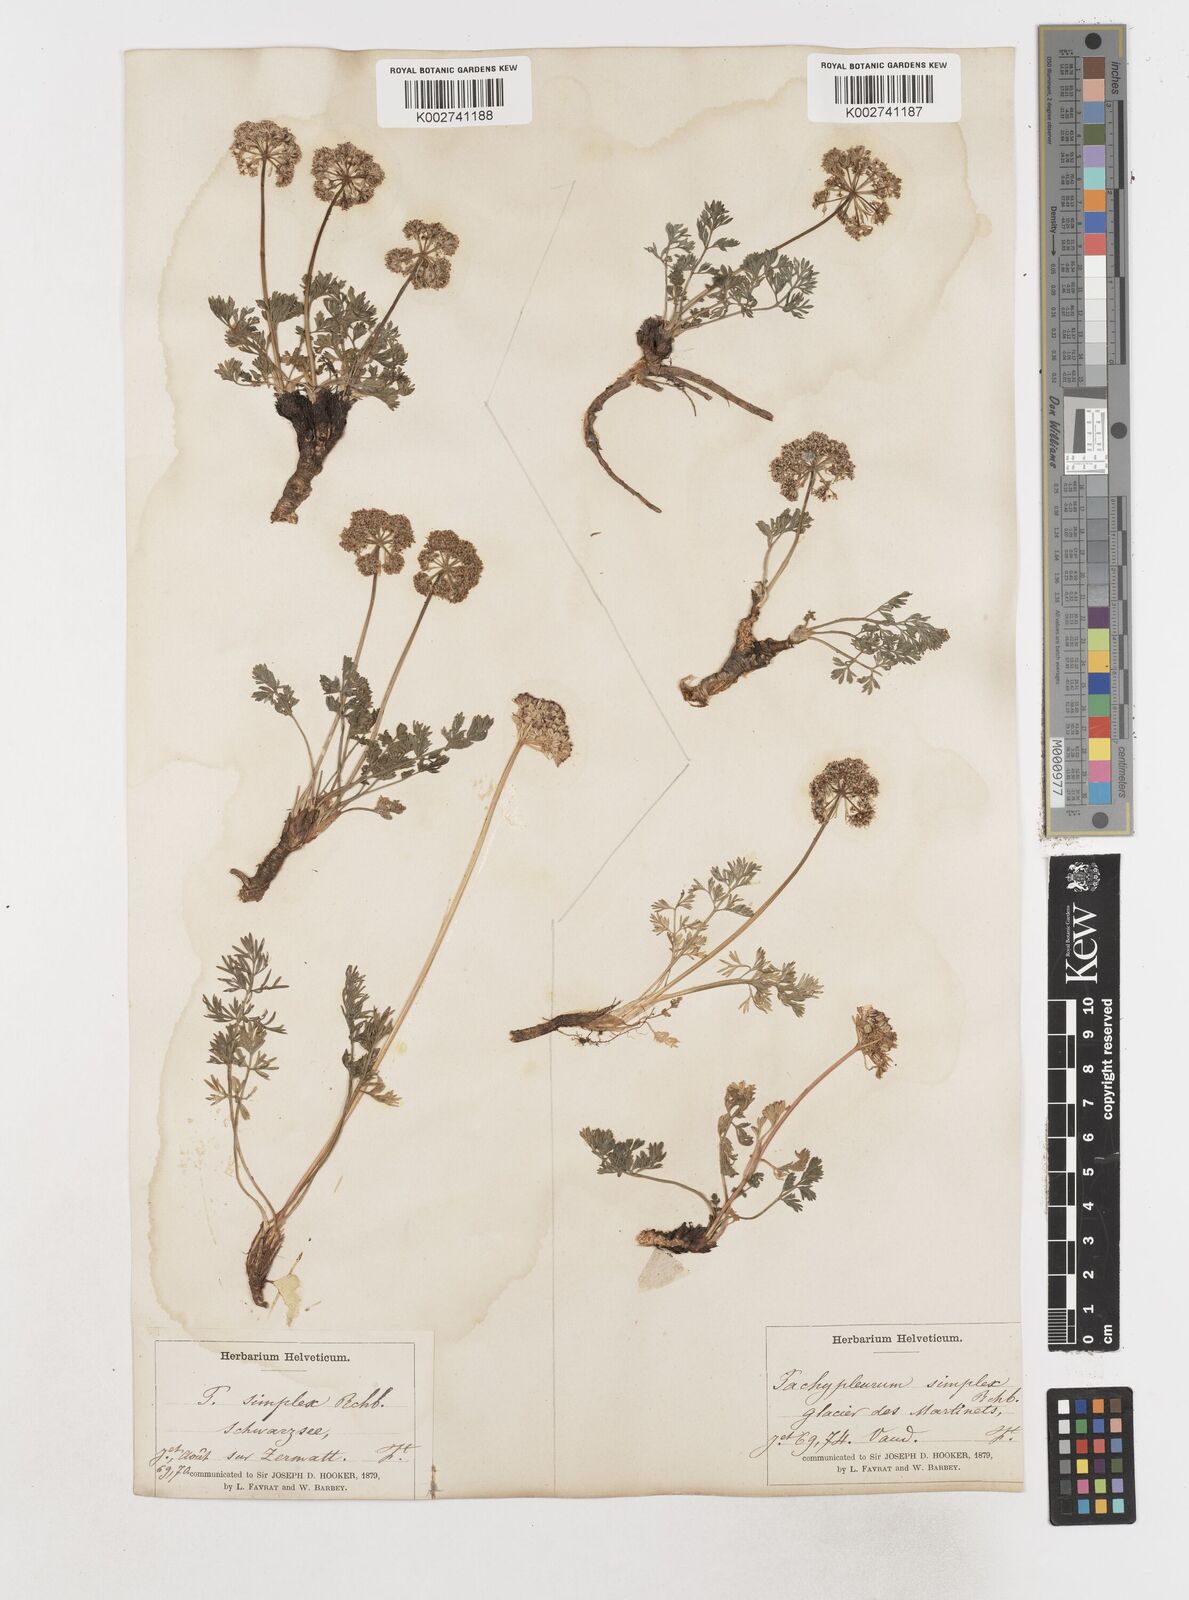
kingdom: Plantae
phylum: Tracheophyta
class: Magnoliopsida
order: Apiales
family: Apiaceae
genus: Pachypleurum
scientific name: Pachypleurum mutellinoides
